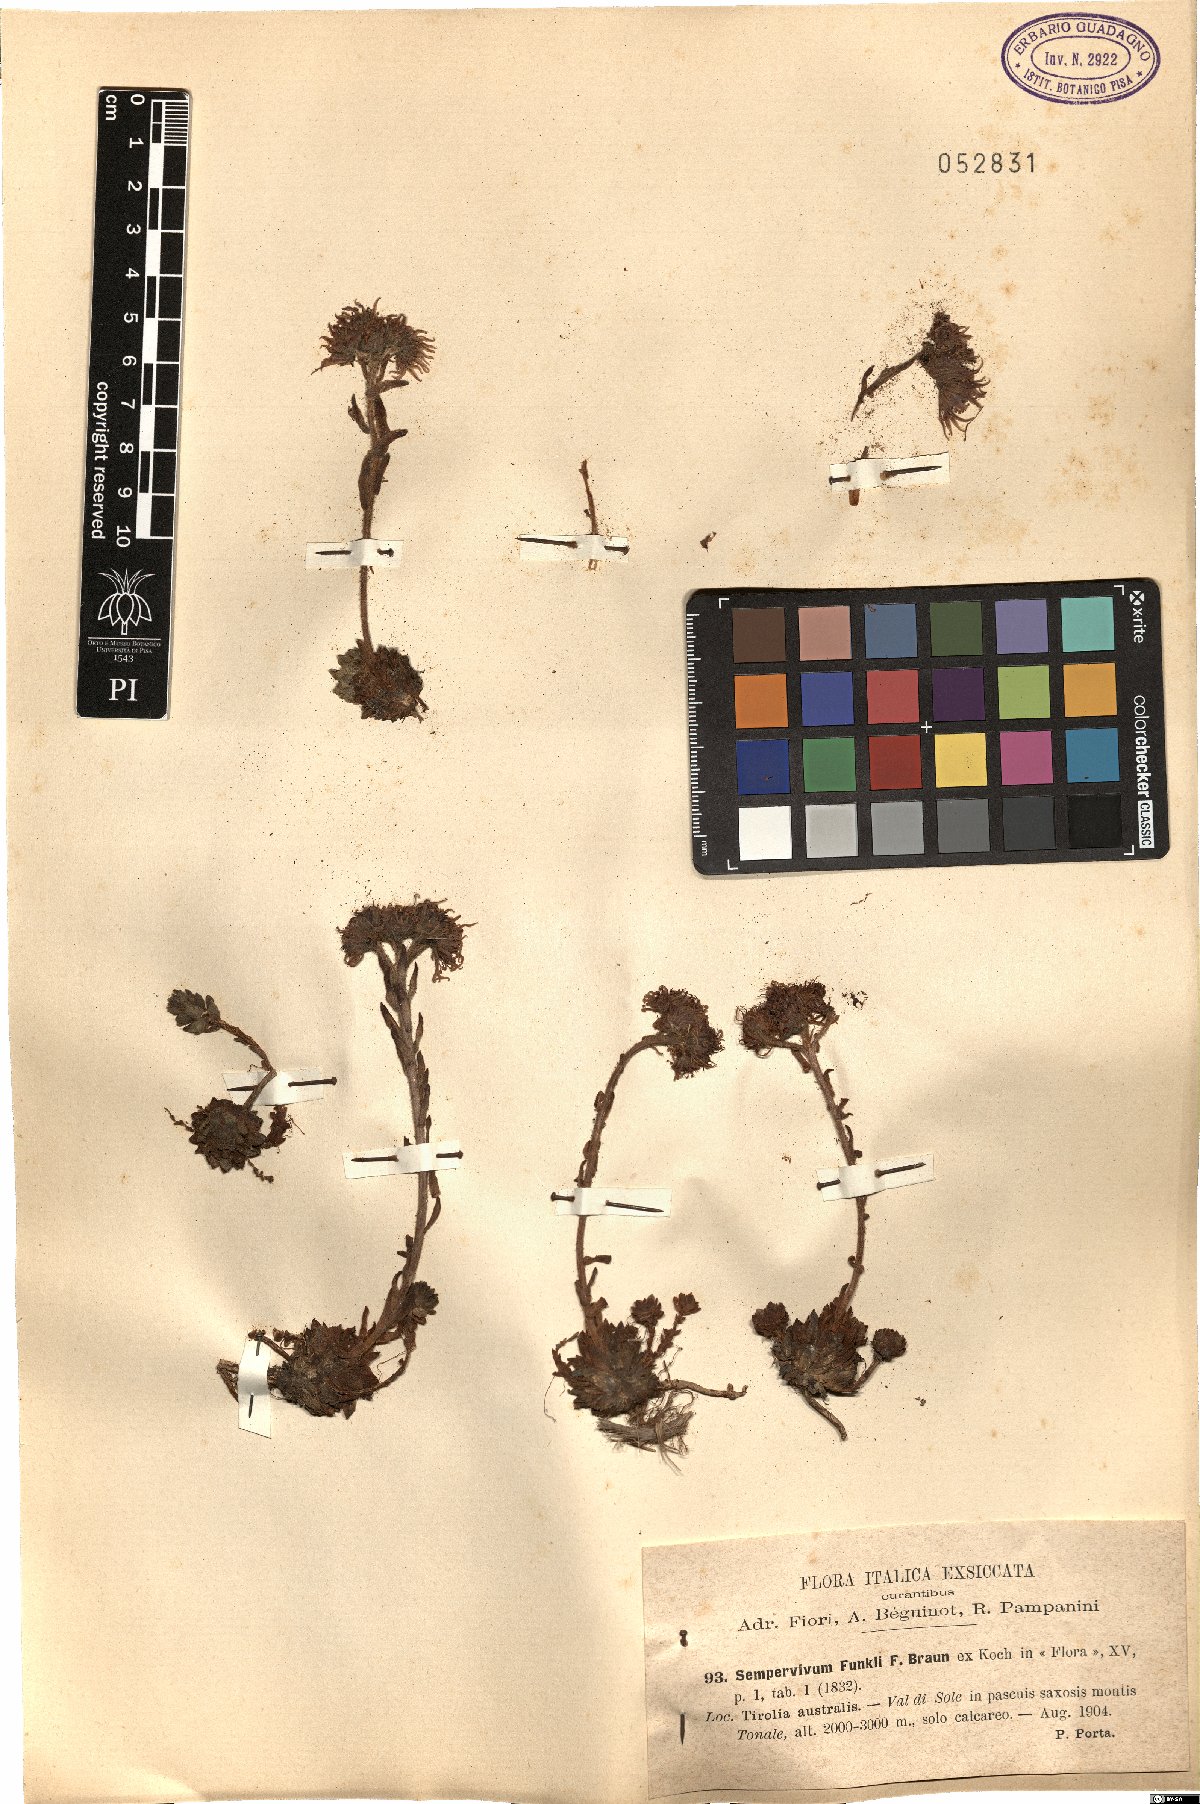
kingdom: Plantae
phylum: Tracheophyta
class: Magnoliopsida
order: Saxifragales
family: Crassulaceae
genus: Sempervivum
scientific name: Sempervivum alatum
